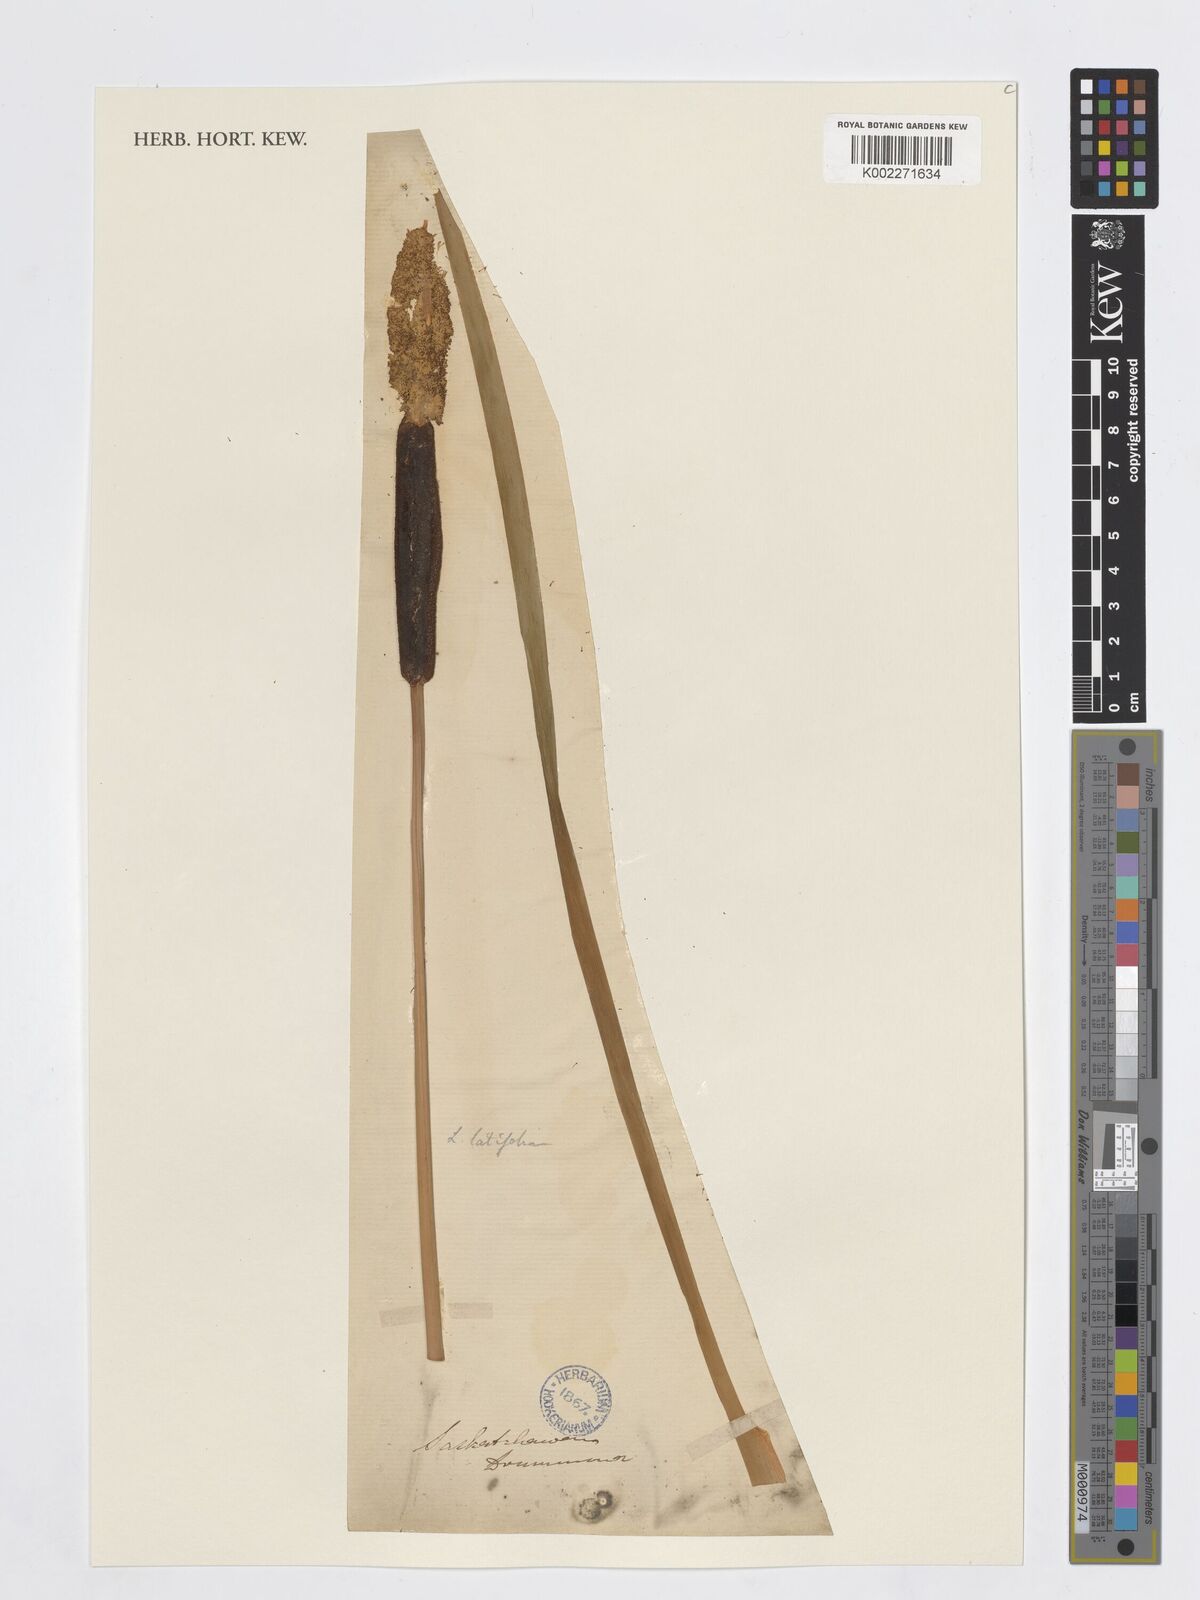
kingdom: Plantae
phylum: Tracheophyta
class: Liliopsida
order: Poales
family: Typhaceae
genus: Typha
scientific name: Typha latifolia
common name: Broadleaf cattail
